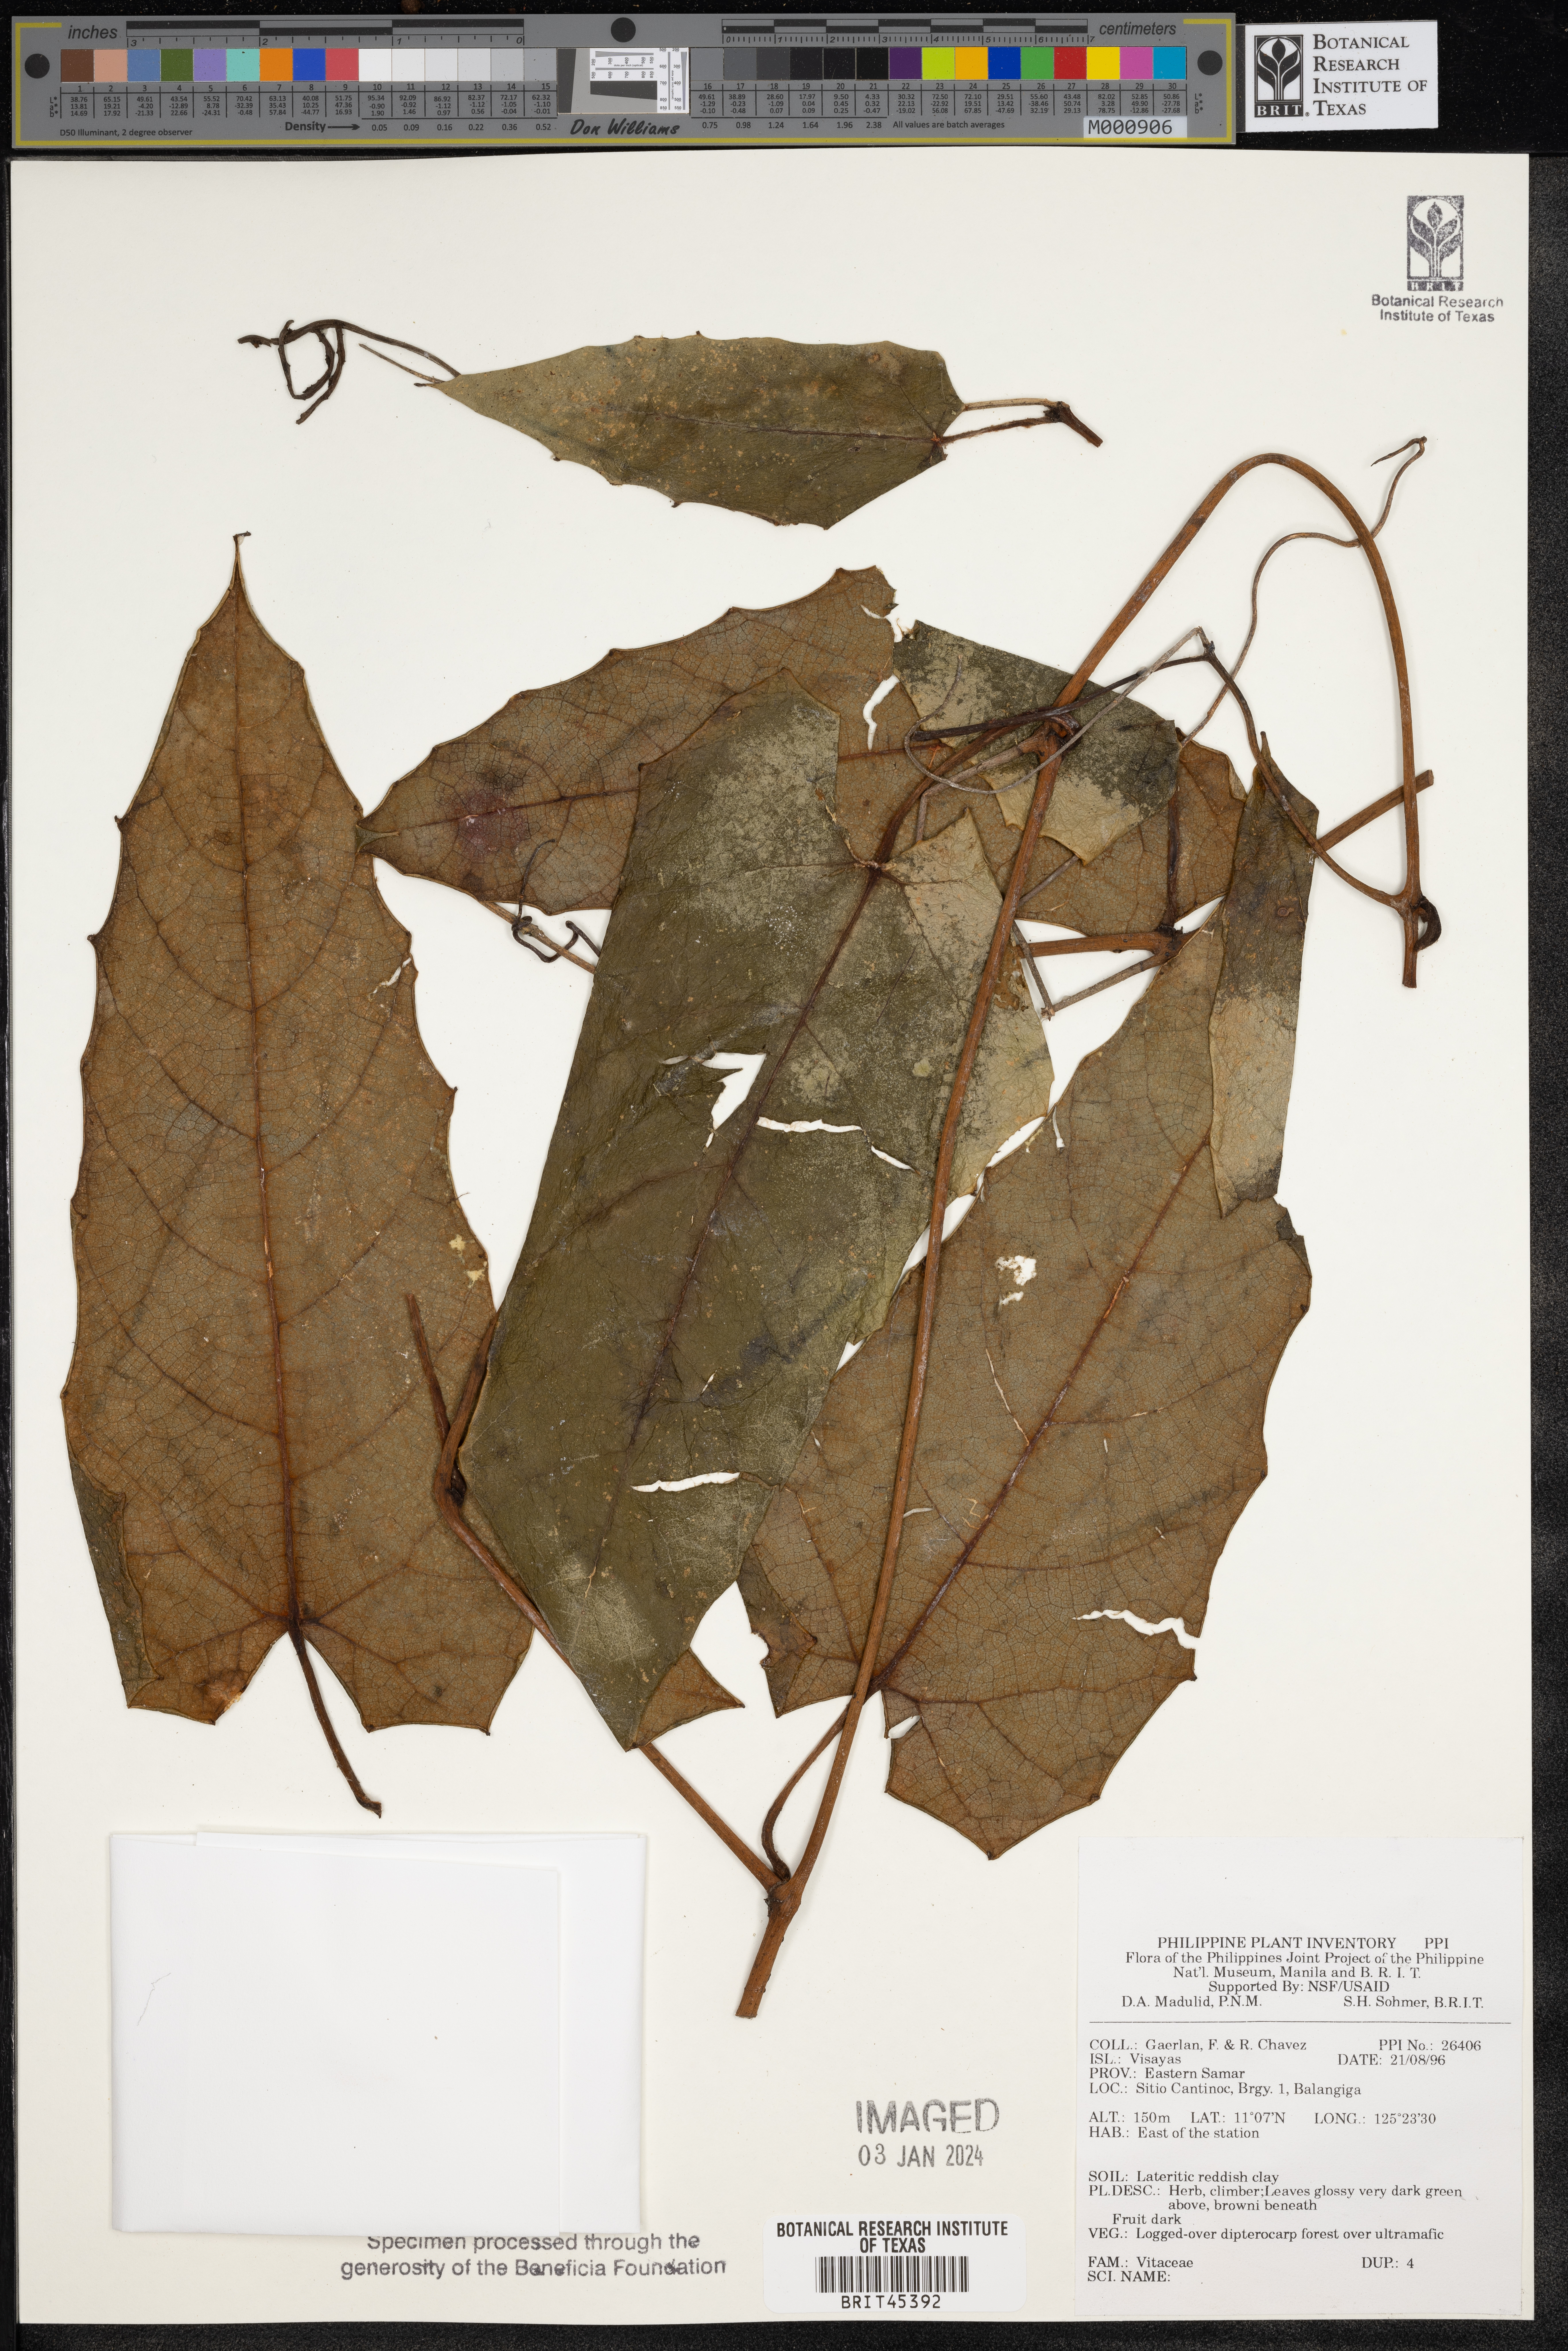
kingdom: Plantae
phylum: Tracheophyta
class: Magnoliopsida
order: Vitales
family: Vitaceae
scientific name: Vitaceae
